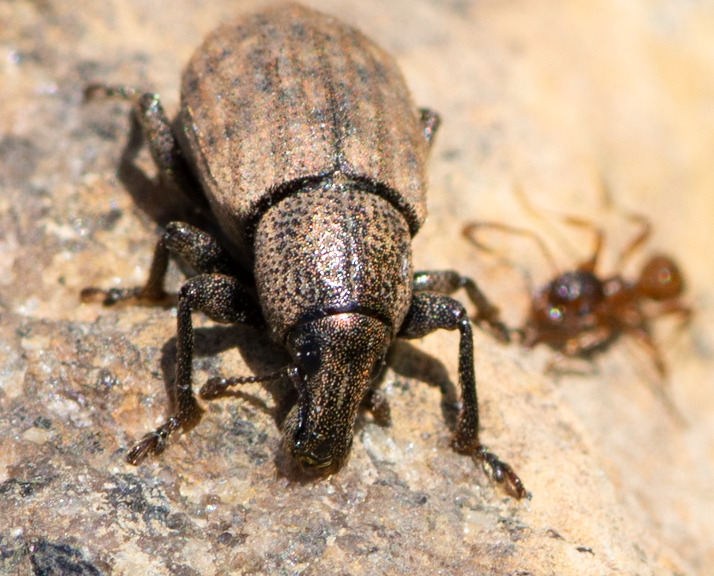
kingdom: Animalia
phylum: Arthropoda
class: Insecta
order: Coleoptera
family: Curculionidae
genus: Barynotus
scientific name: Barynotus obscurus
